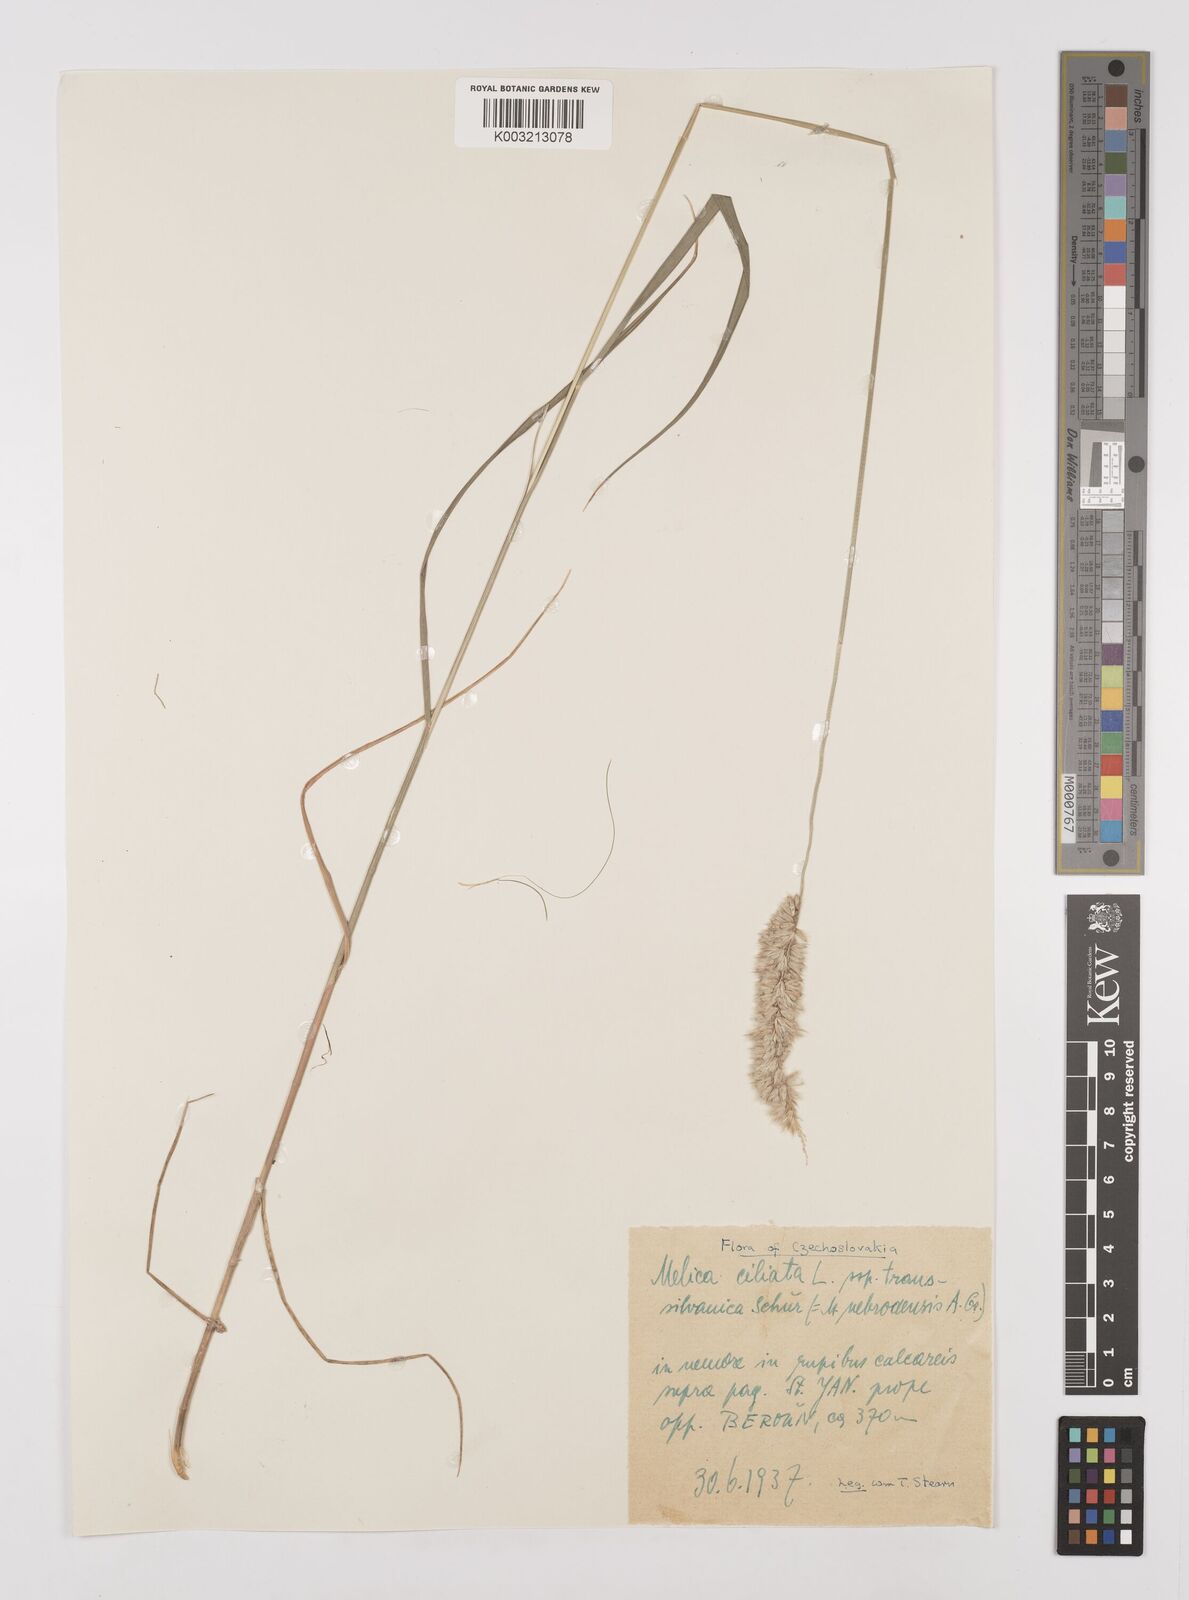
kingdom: Plantae
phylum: Tracheophyta
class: Liliopsida
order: Poales
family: Poaceae
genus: Melica
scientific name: Melica ciliata
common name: Hairy melicgrass
